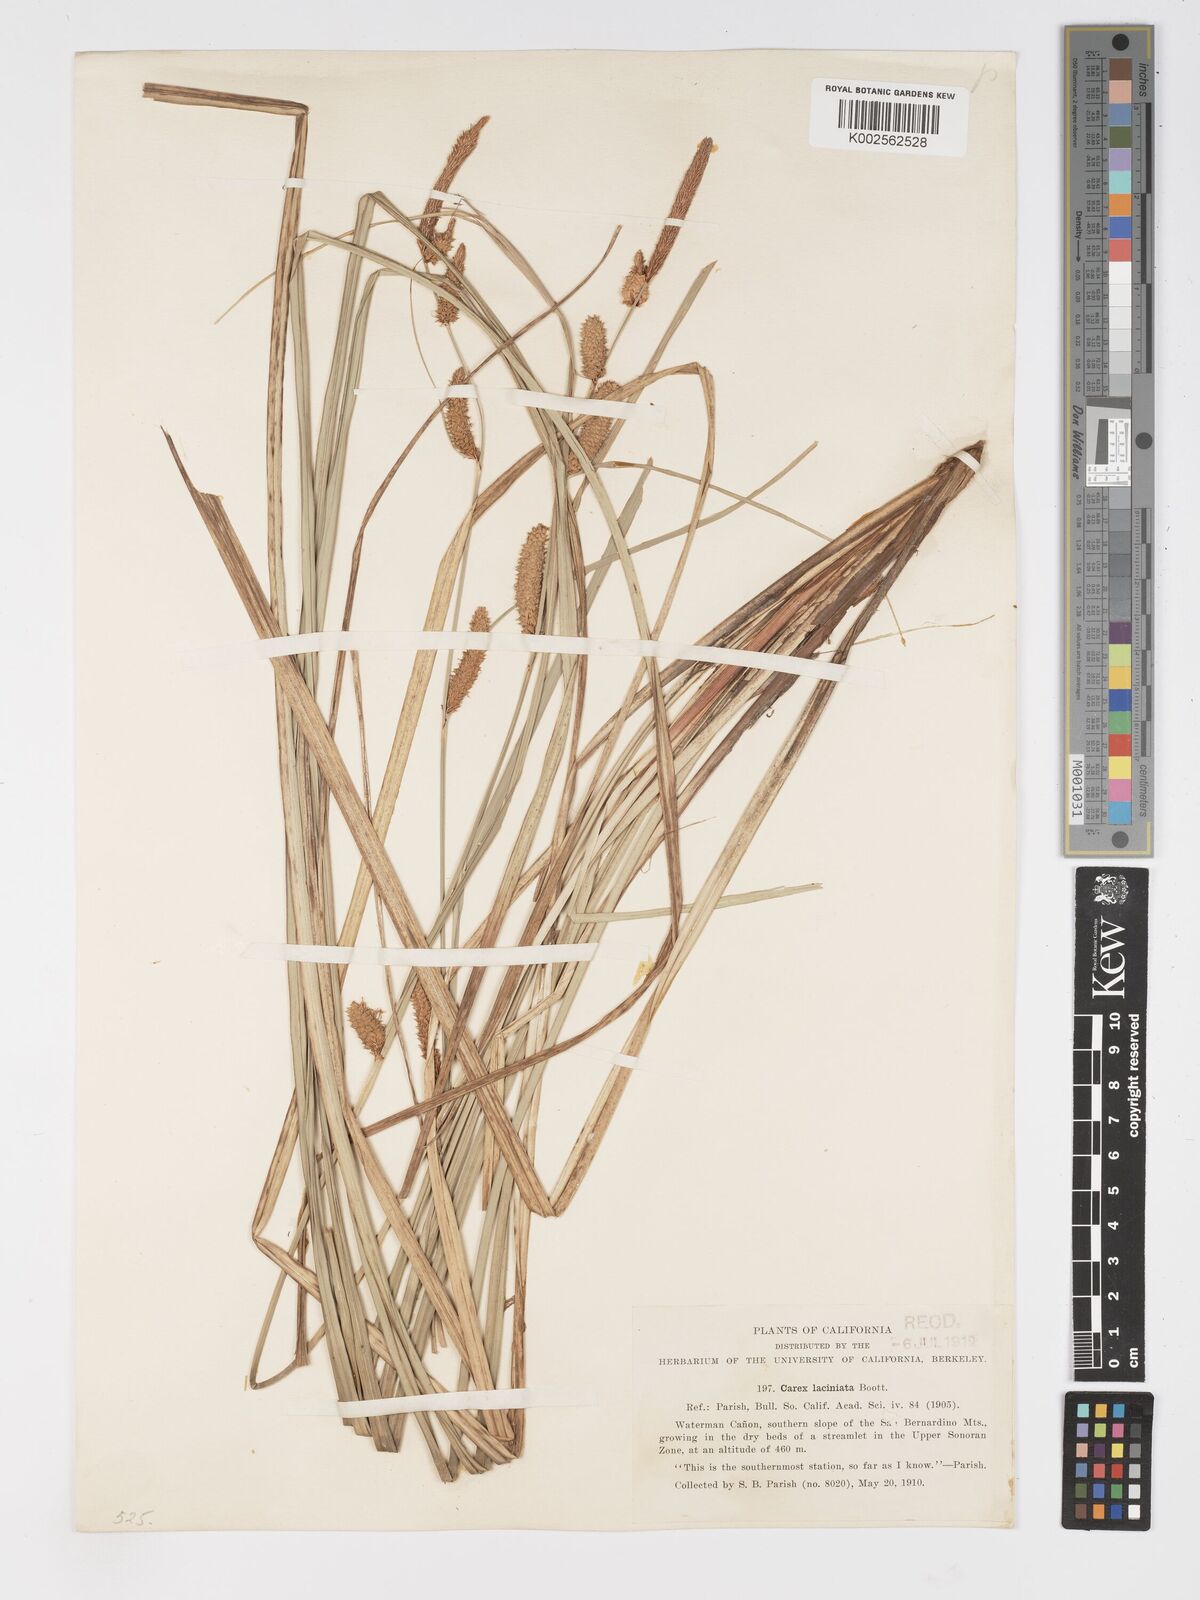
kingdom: Plantae
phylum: Tracheophyta
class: Liliopsida
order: Poales
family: Cyperaceae
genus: Carex
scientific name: Carex barbarae
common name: Santa barbara sedge
